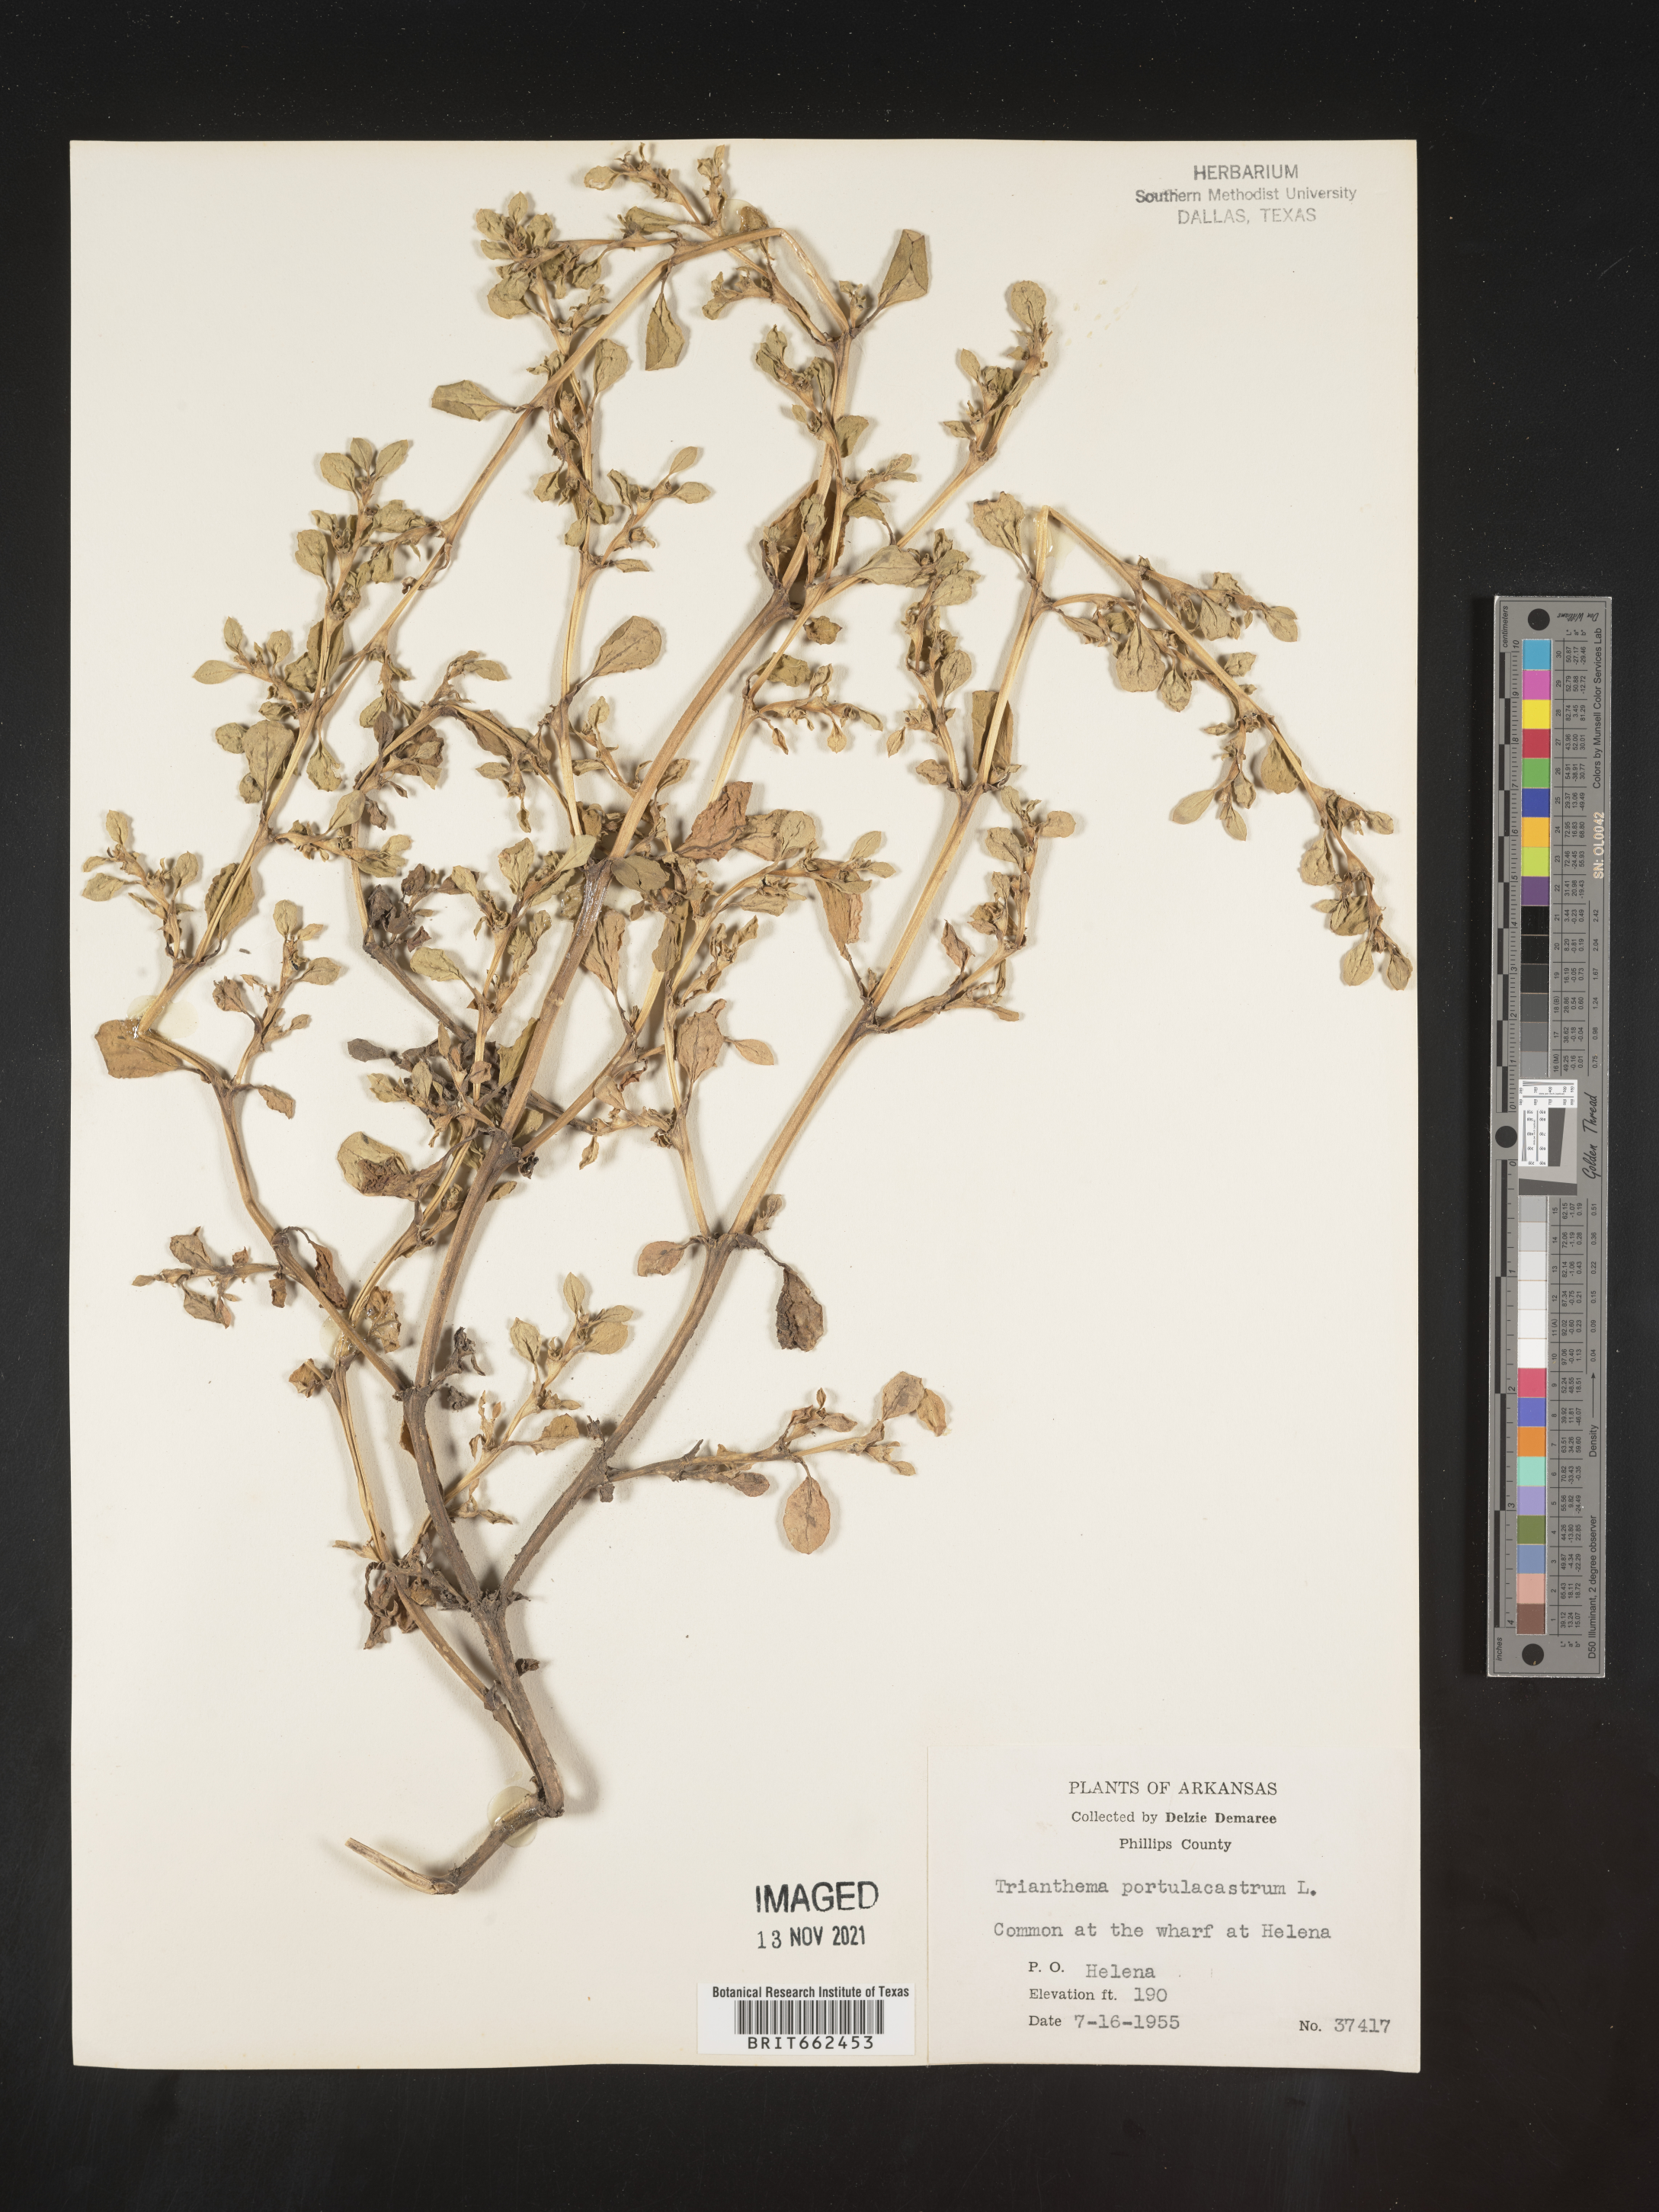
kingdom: Plantae
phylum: Tracheophyta
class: Magnoliopsida
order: Caryophyllales
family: Aizoaceae
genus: Trianthema
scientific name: Trianthema
